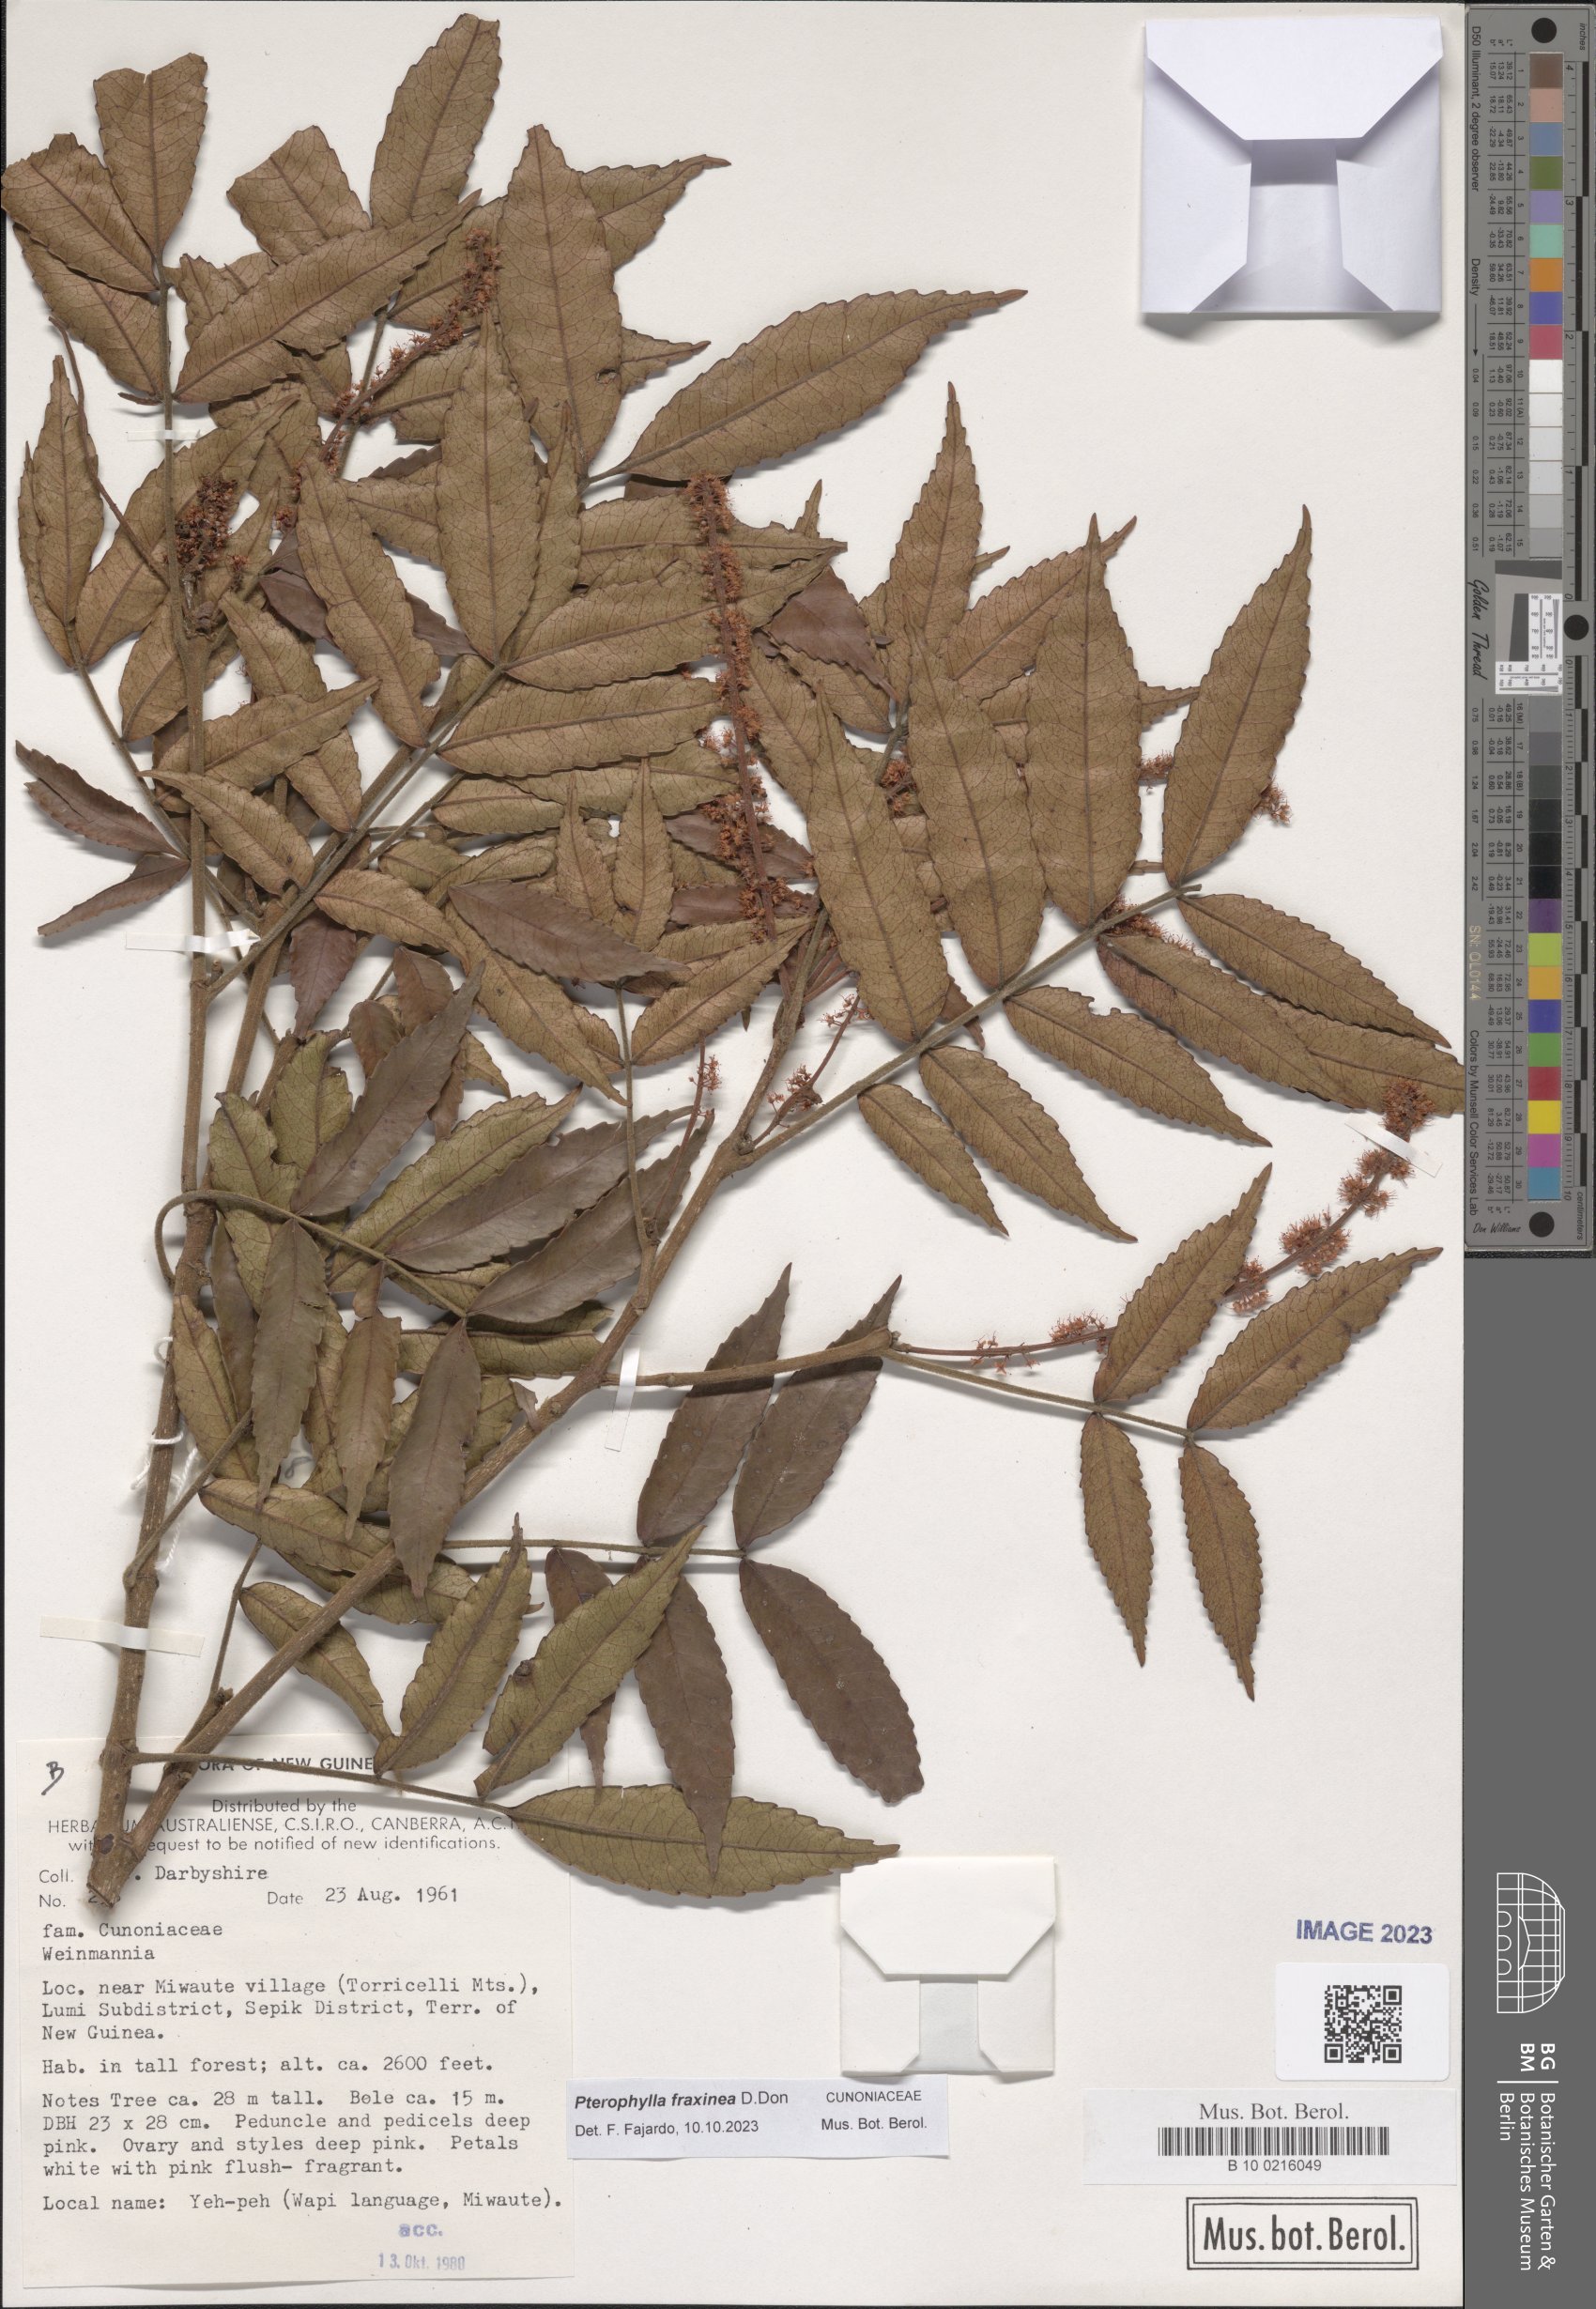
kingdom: Plantae
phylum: Tracheophyta
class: Magnoliopsida
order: Oxalidales
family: Cunoniaceae
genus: Pterophylla
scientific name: Pterophylla fraxinea
